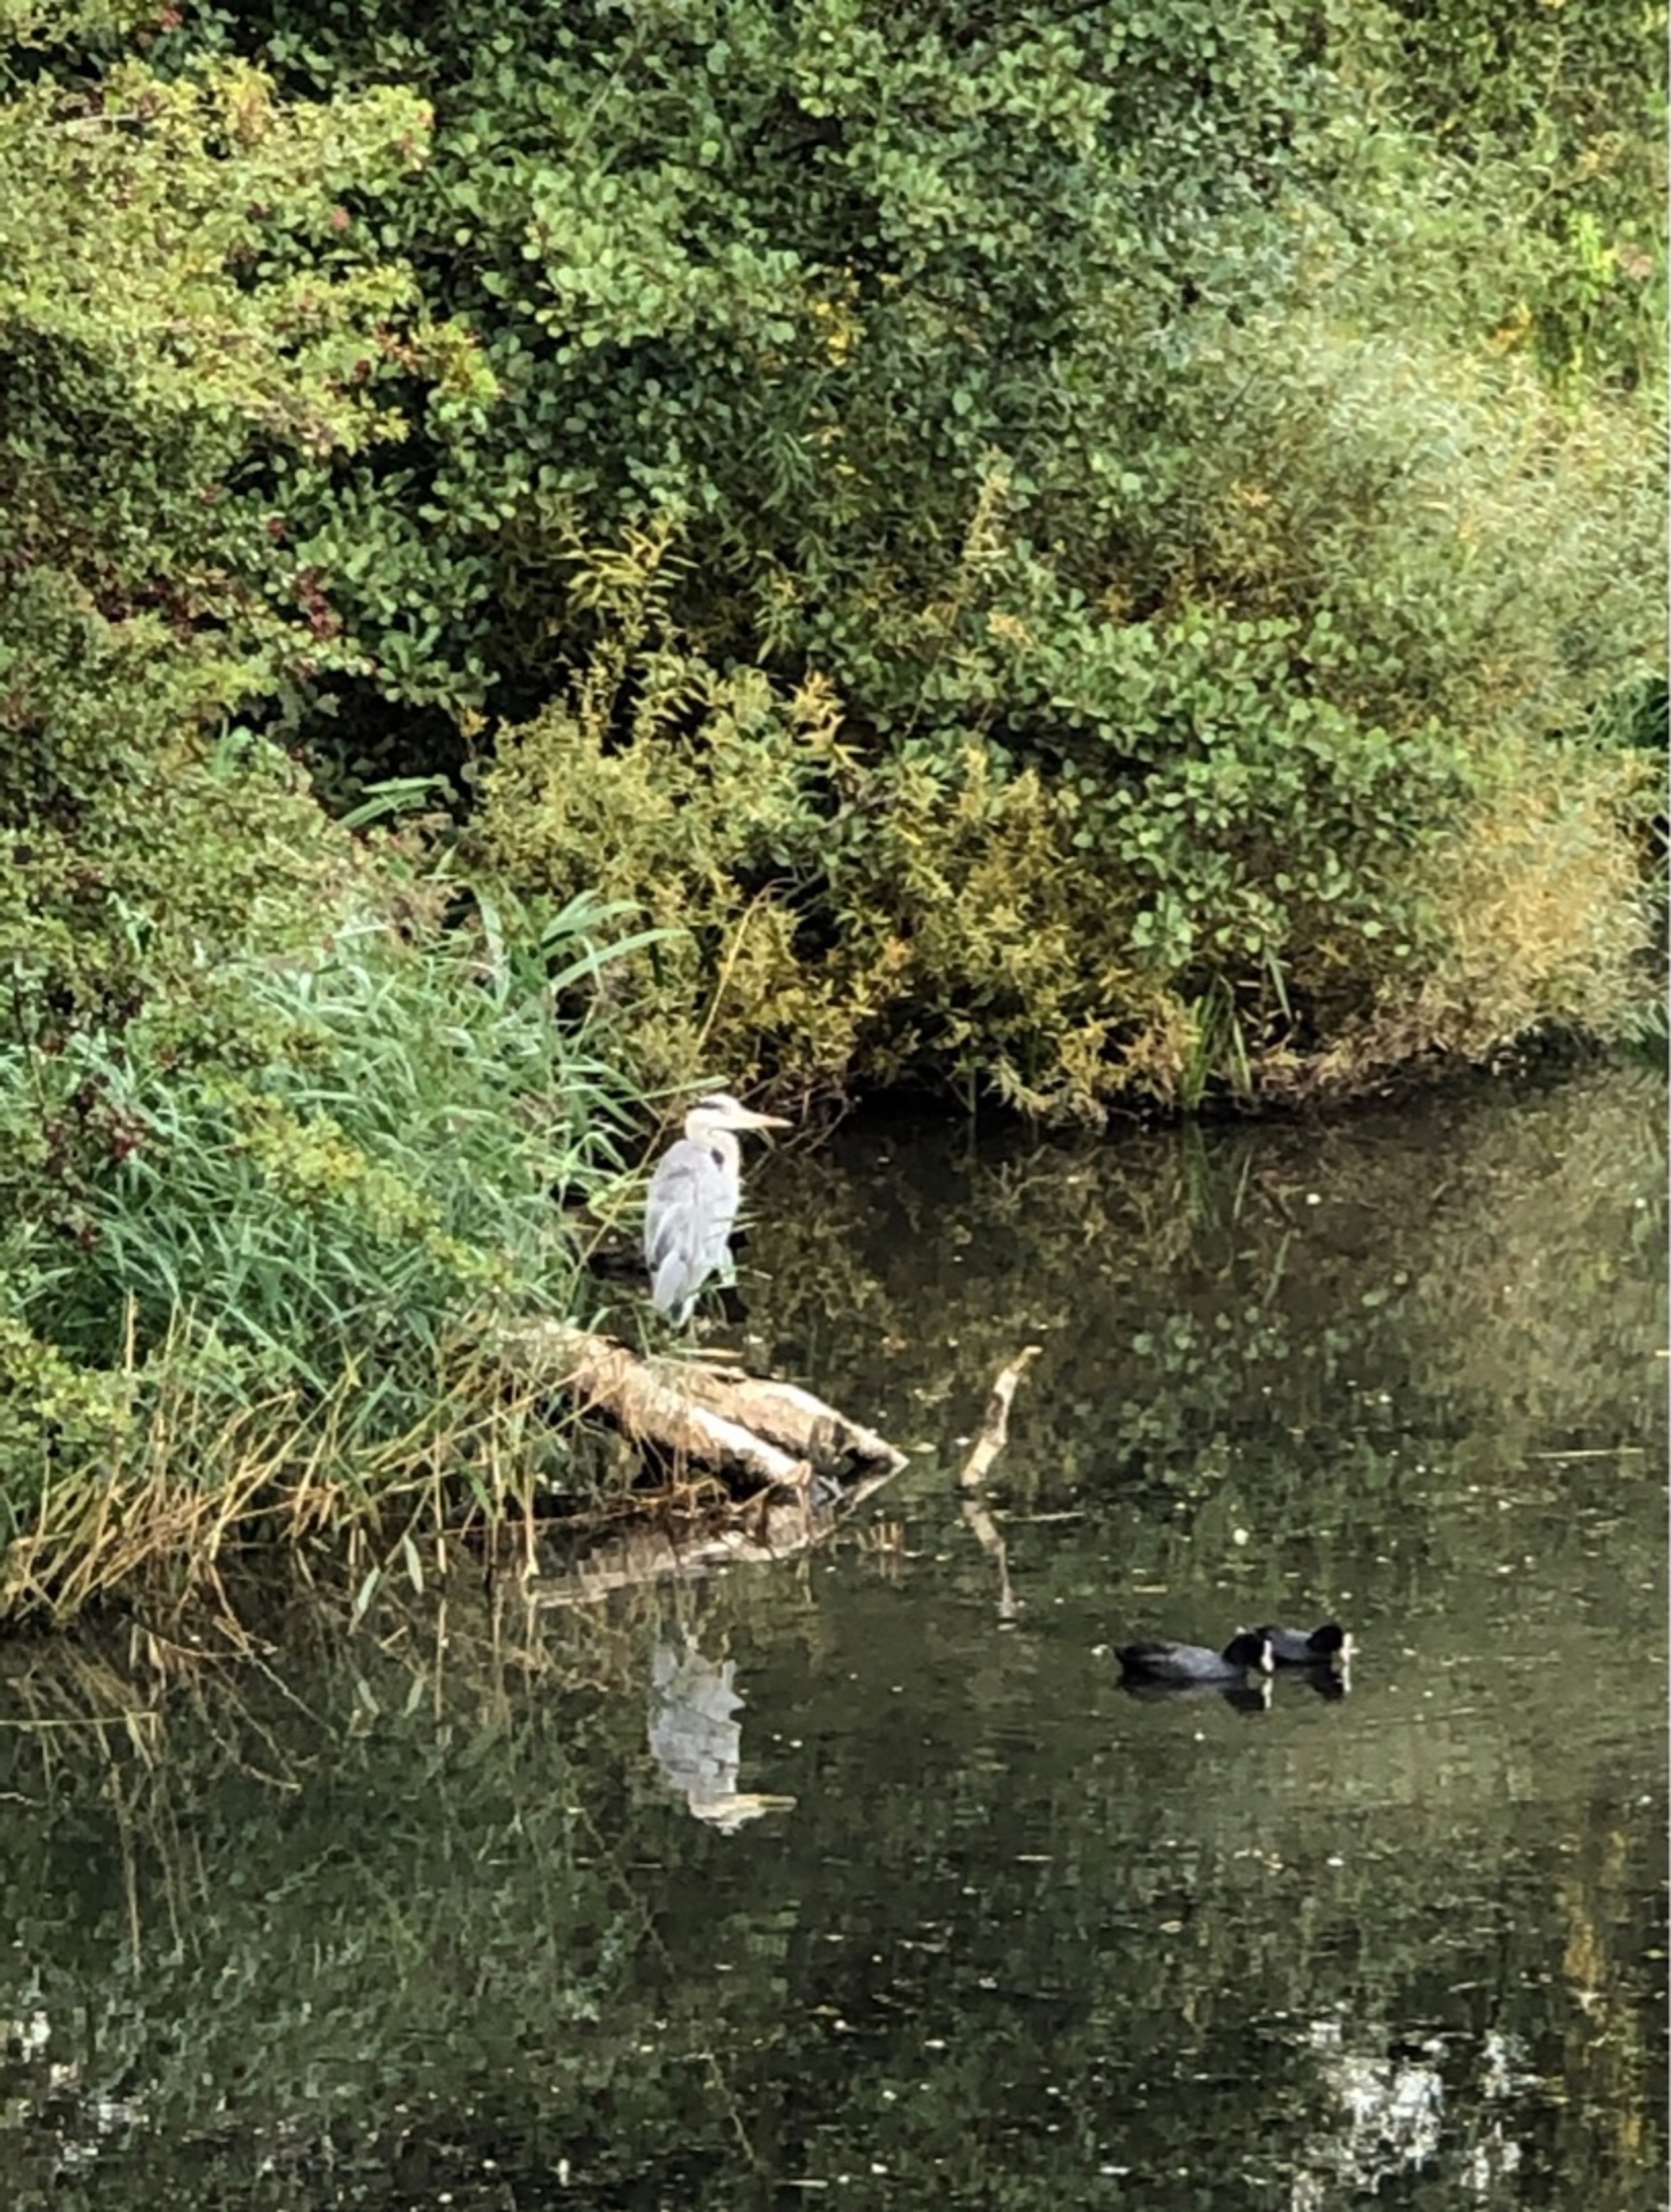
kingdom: Animalia
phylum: Chordata
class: Aves
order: Pelecaniformes
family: Ardeidae
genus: Ardea
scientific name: Ardea cinerea
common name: Fiskehejre
